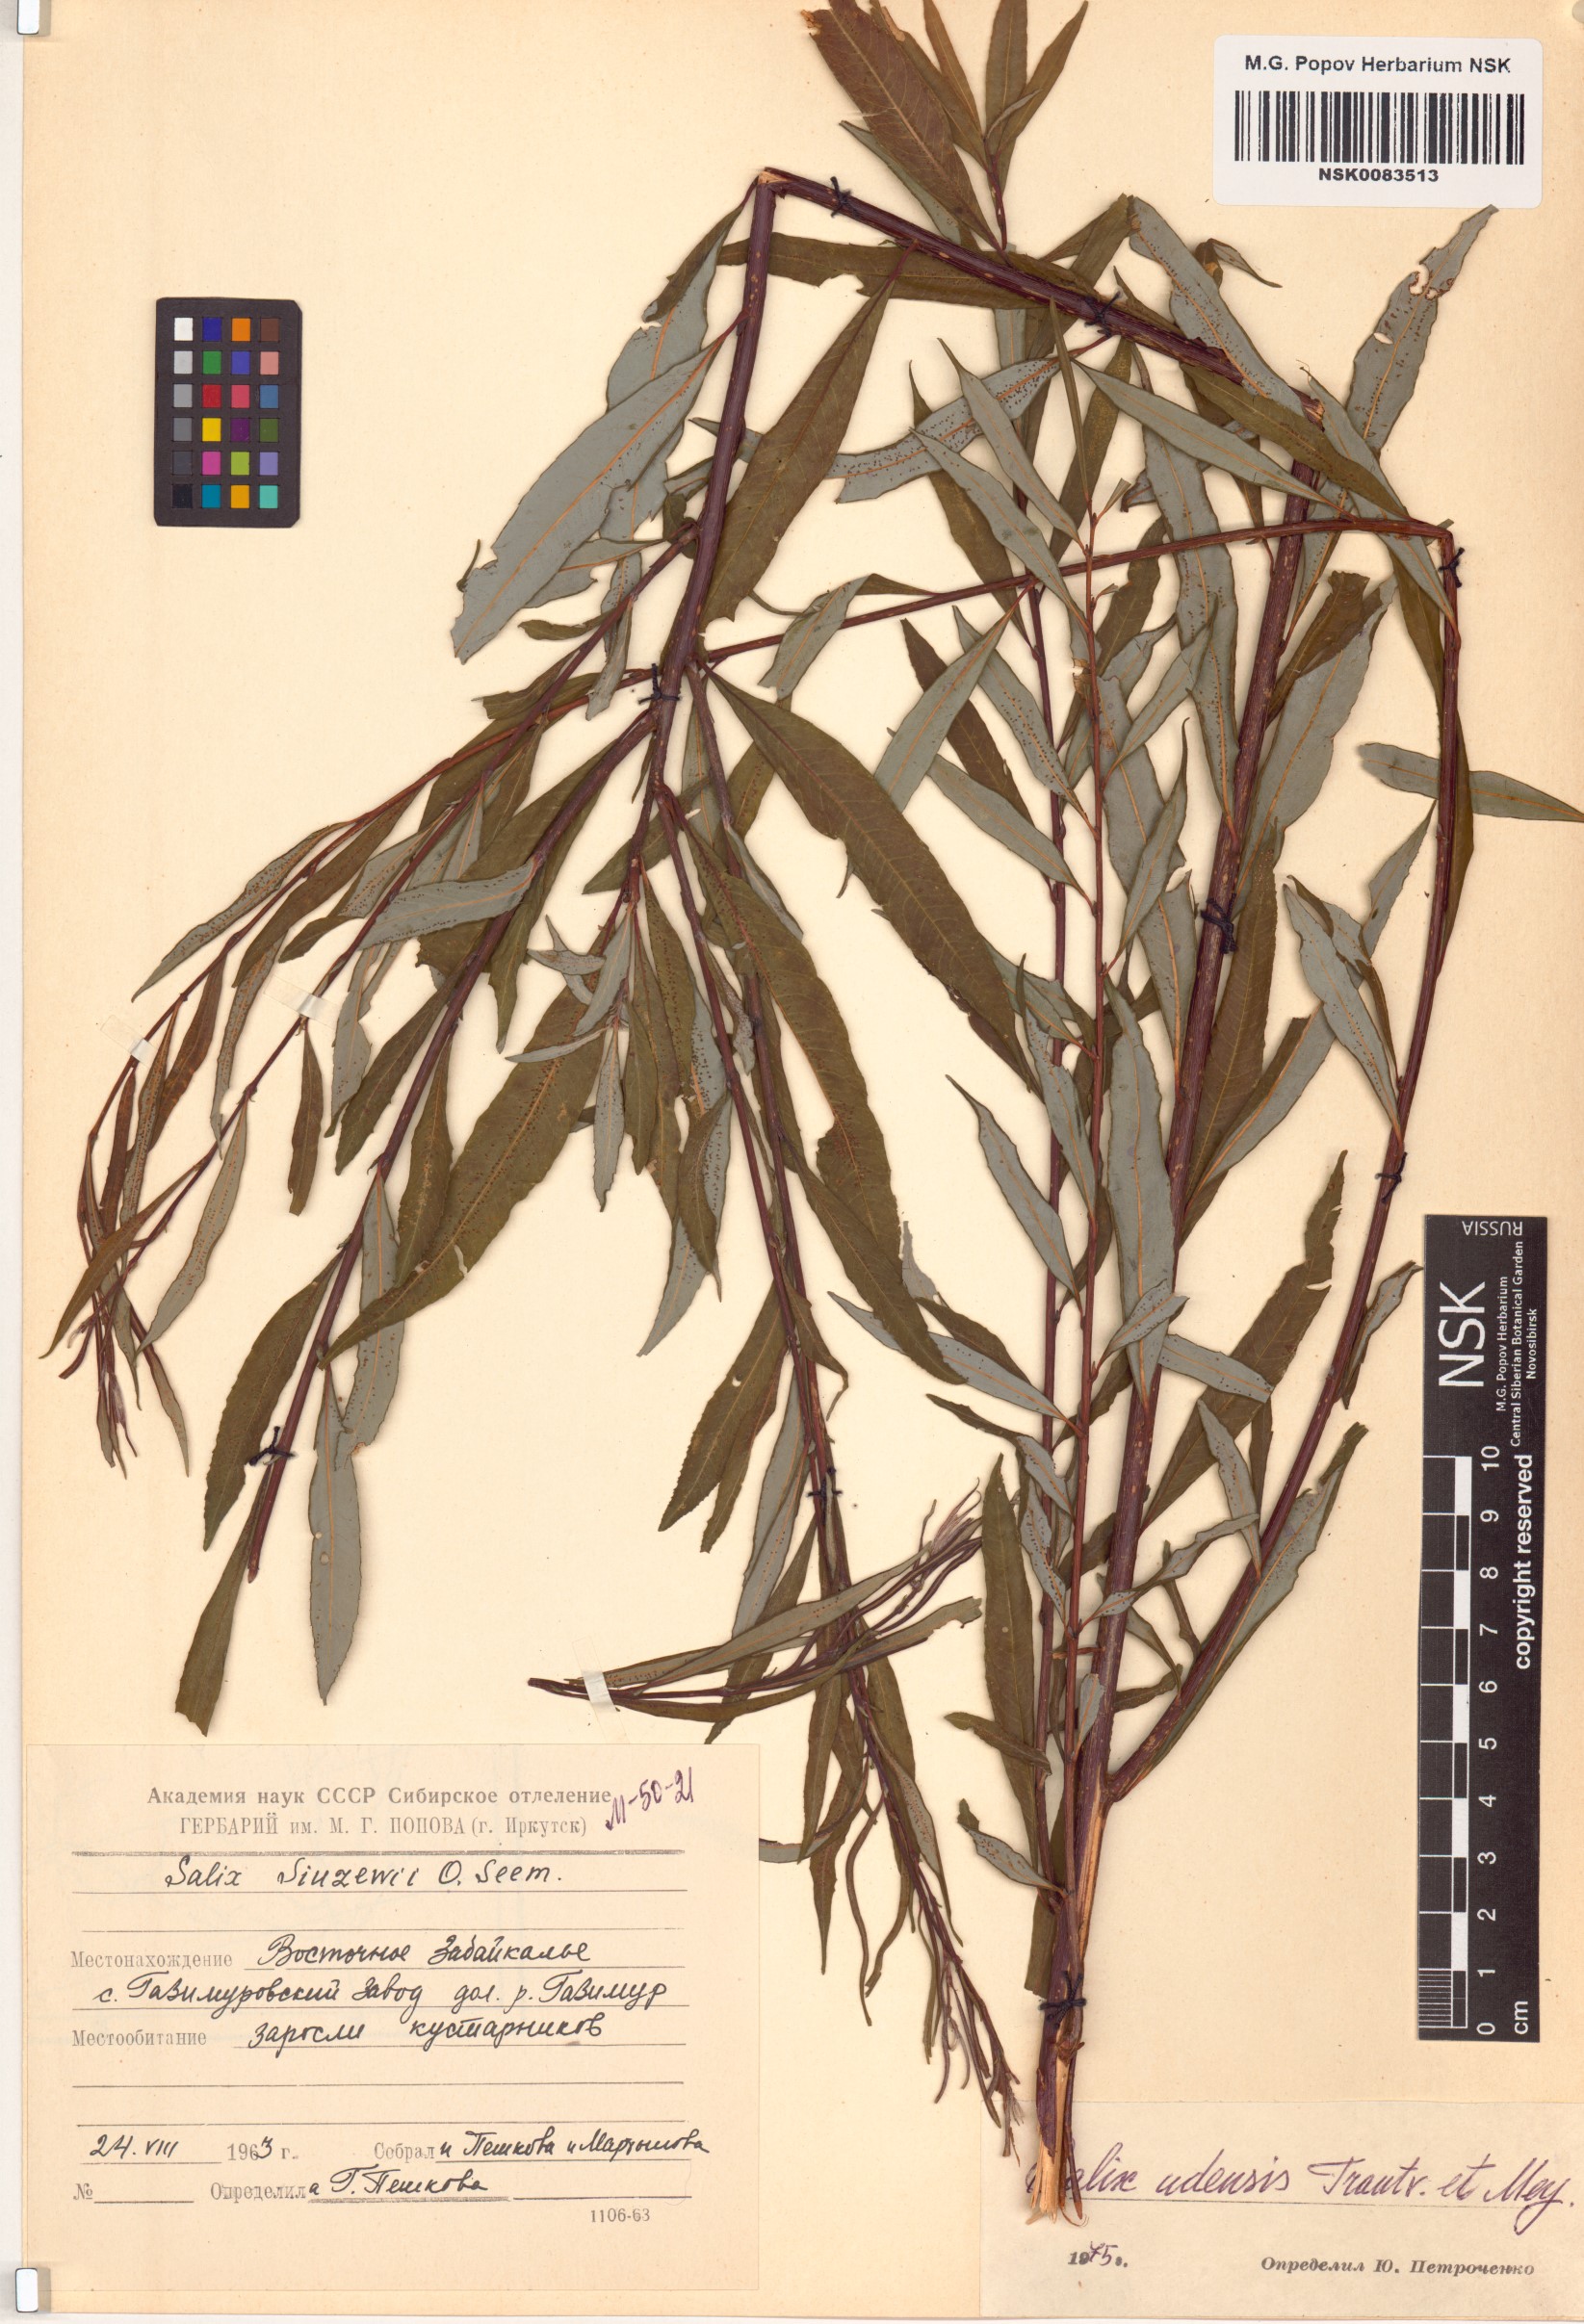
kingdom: Plantae
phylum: Tracheophyta
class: Magnoliopsida
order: Malpighiales
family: Salicaceae
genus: Salix
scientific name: Salix udensis
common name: Sachalin willow
